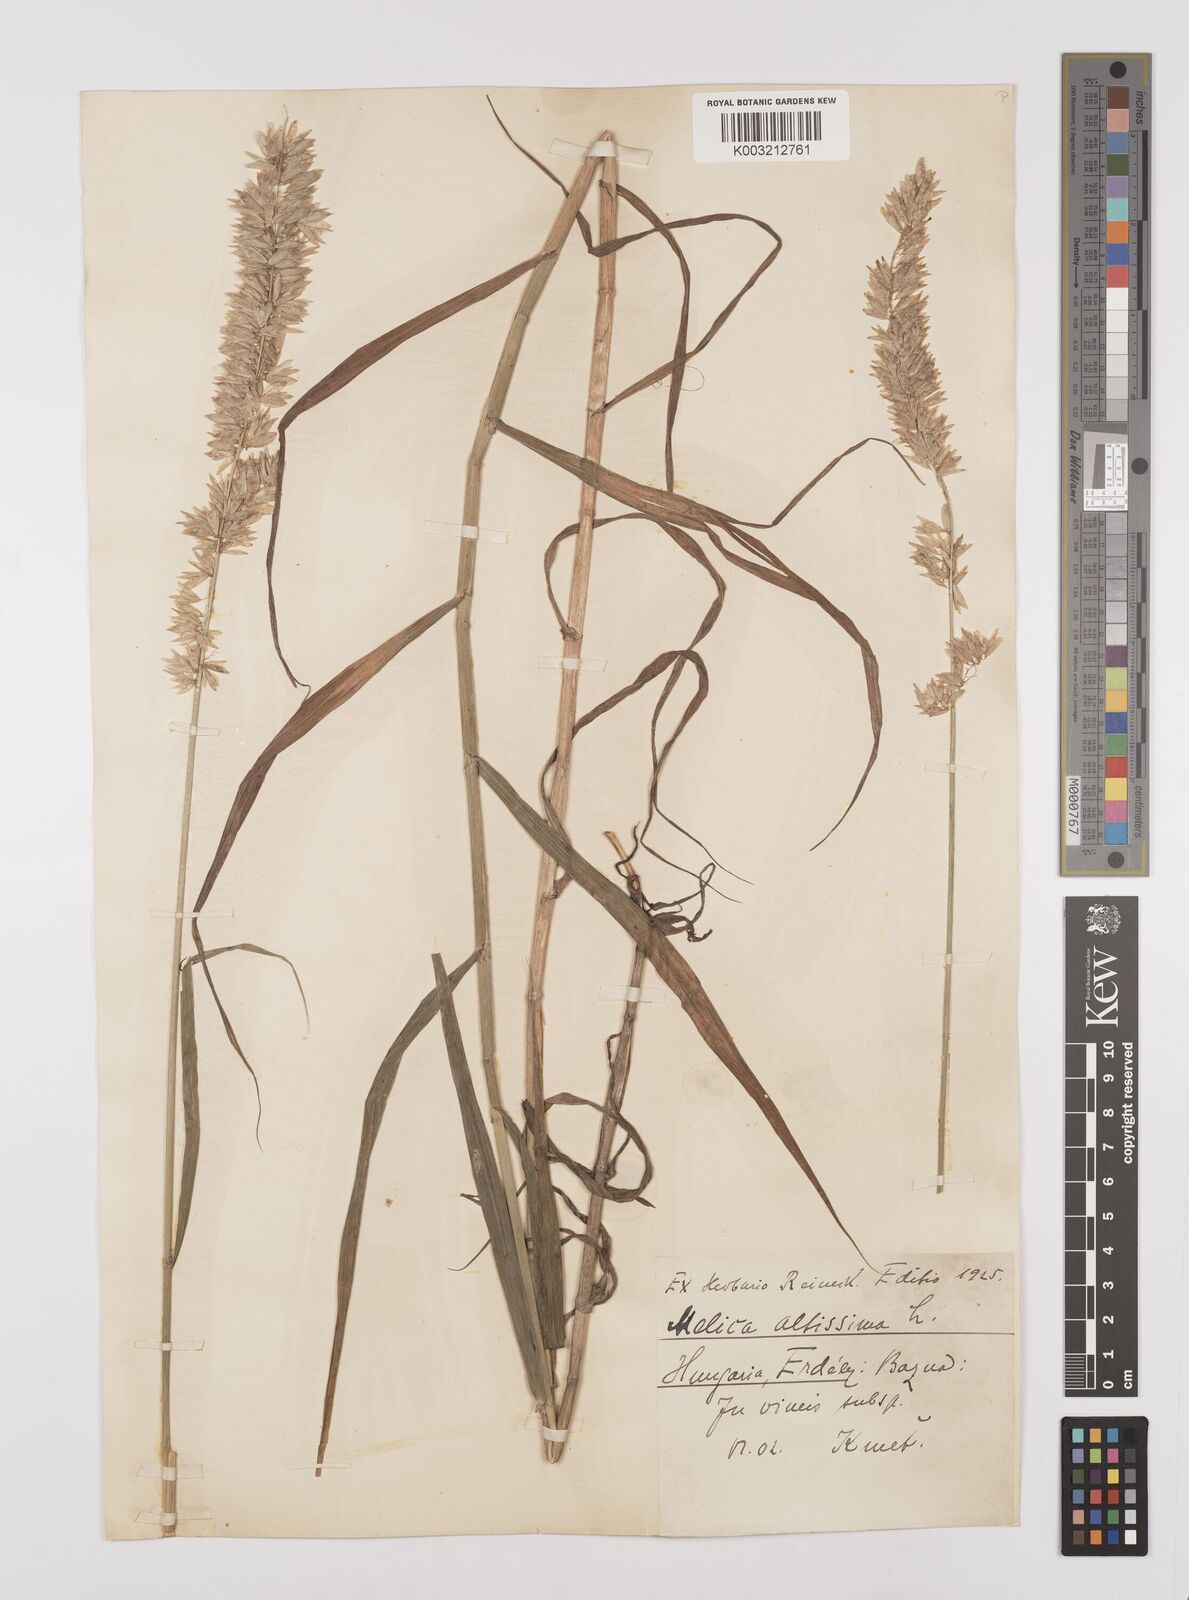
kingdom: Plantae
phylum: Tracheophyta
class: Liliopsida
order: Poales
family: Poaceae
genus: Melica
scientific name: Melica altissima
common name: Siberian melicgrass
